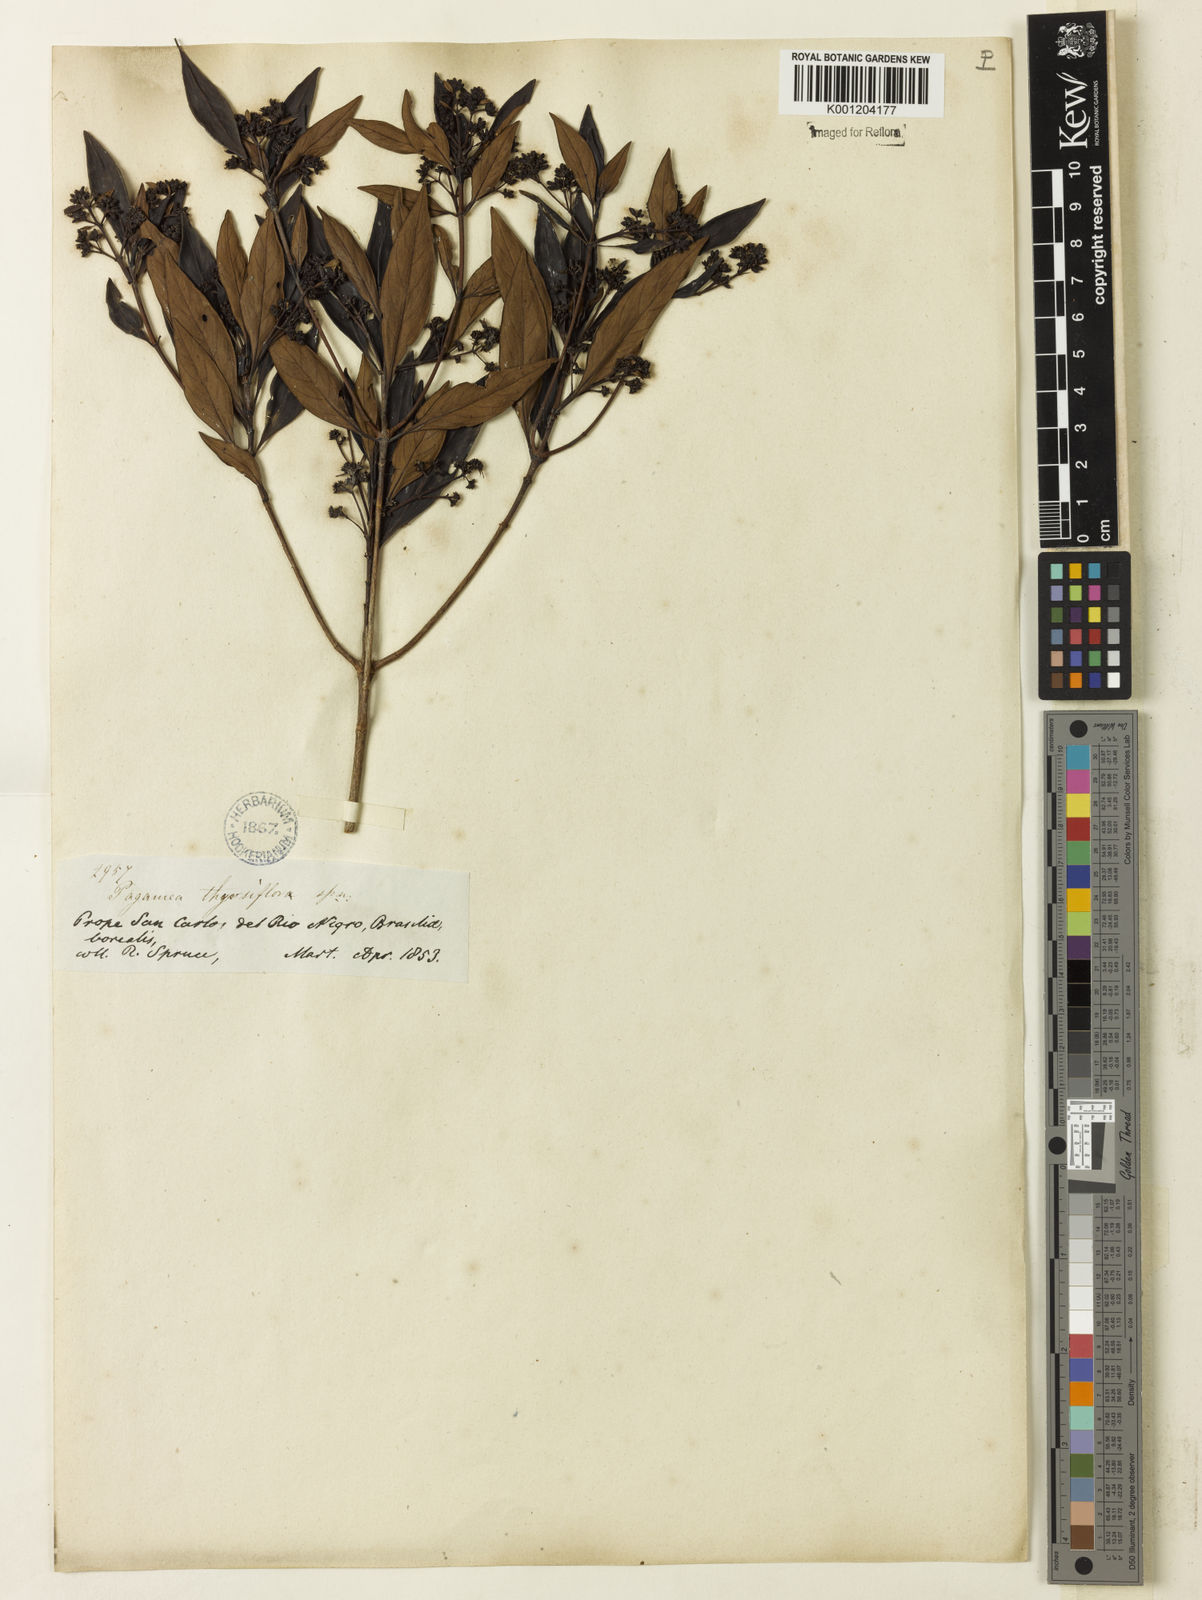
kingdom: Plantae
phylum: Tracheophyta
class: Magnoliopsida
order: Gentianales
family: Rubiaceae
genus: Pagamea
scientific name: Pagamea thyrsiflora
